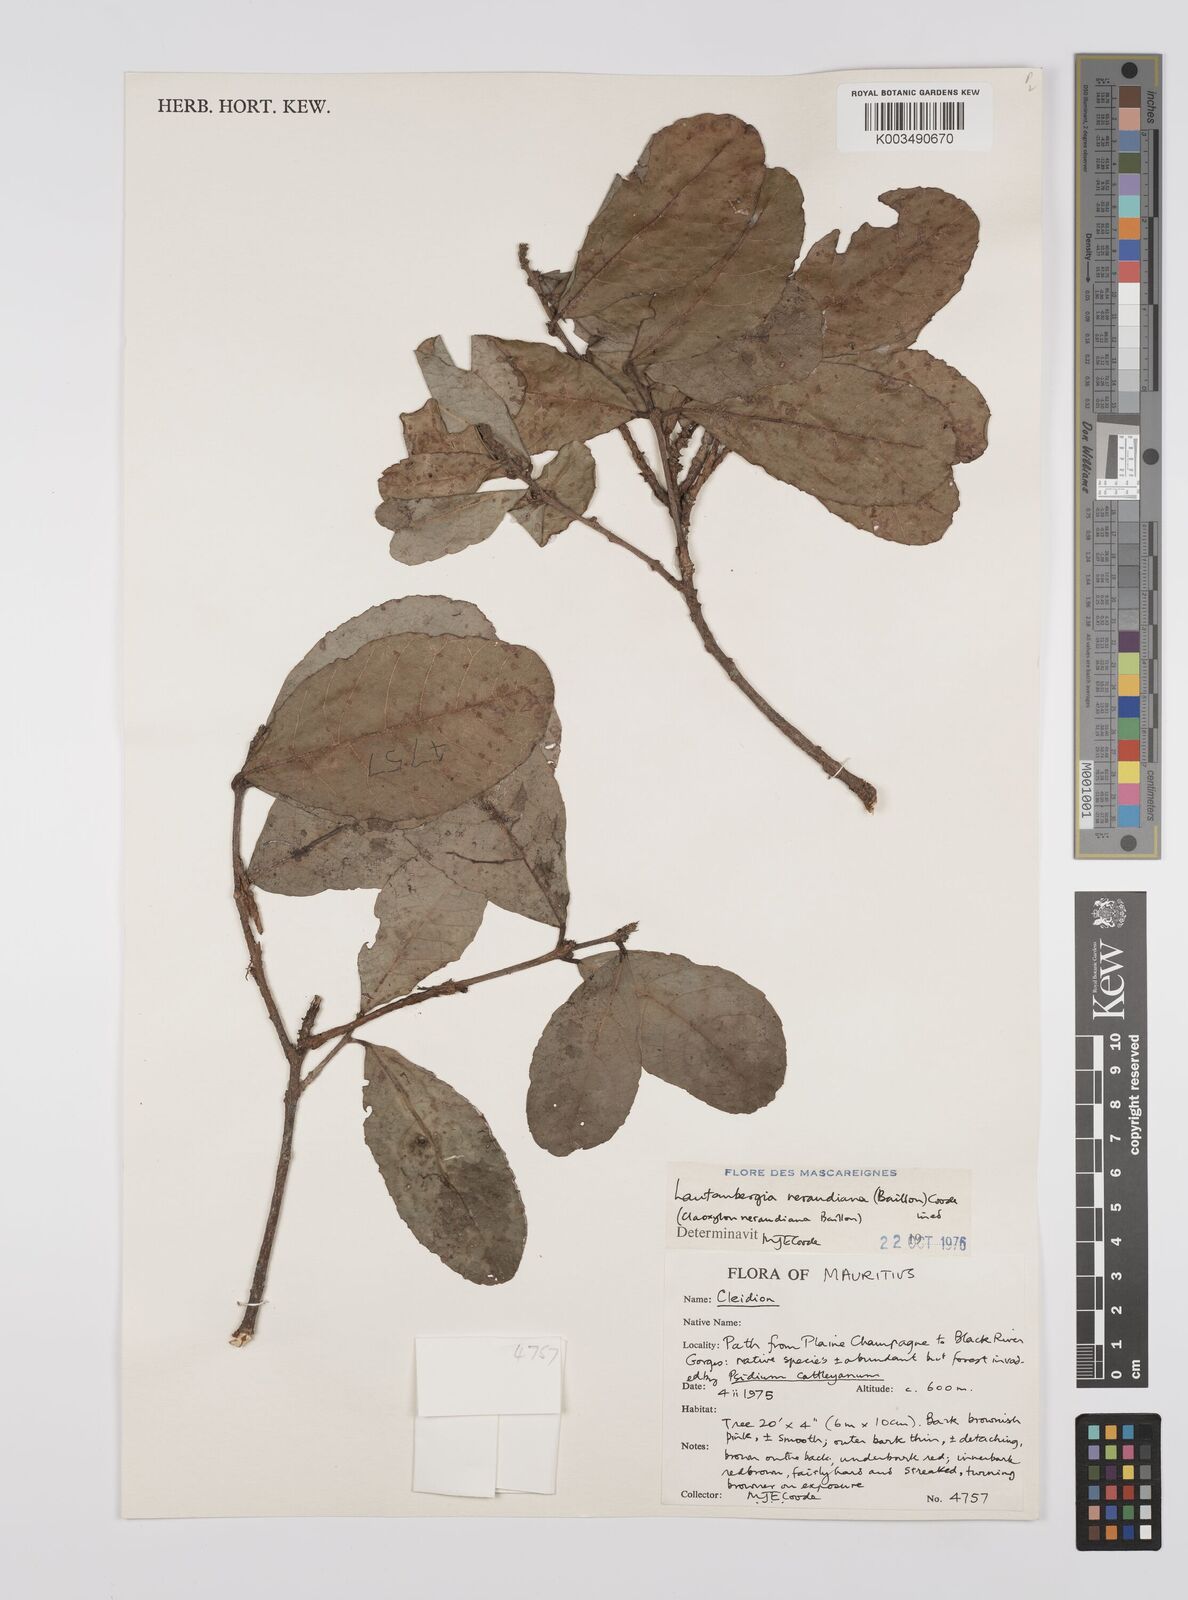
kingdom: Plantae
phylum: Tracheophyta
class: Magnoliopsida
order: Malpighiales
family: Euphorbiaceae
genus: Orfilea
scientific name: Orfilea neraudiana
